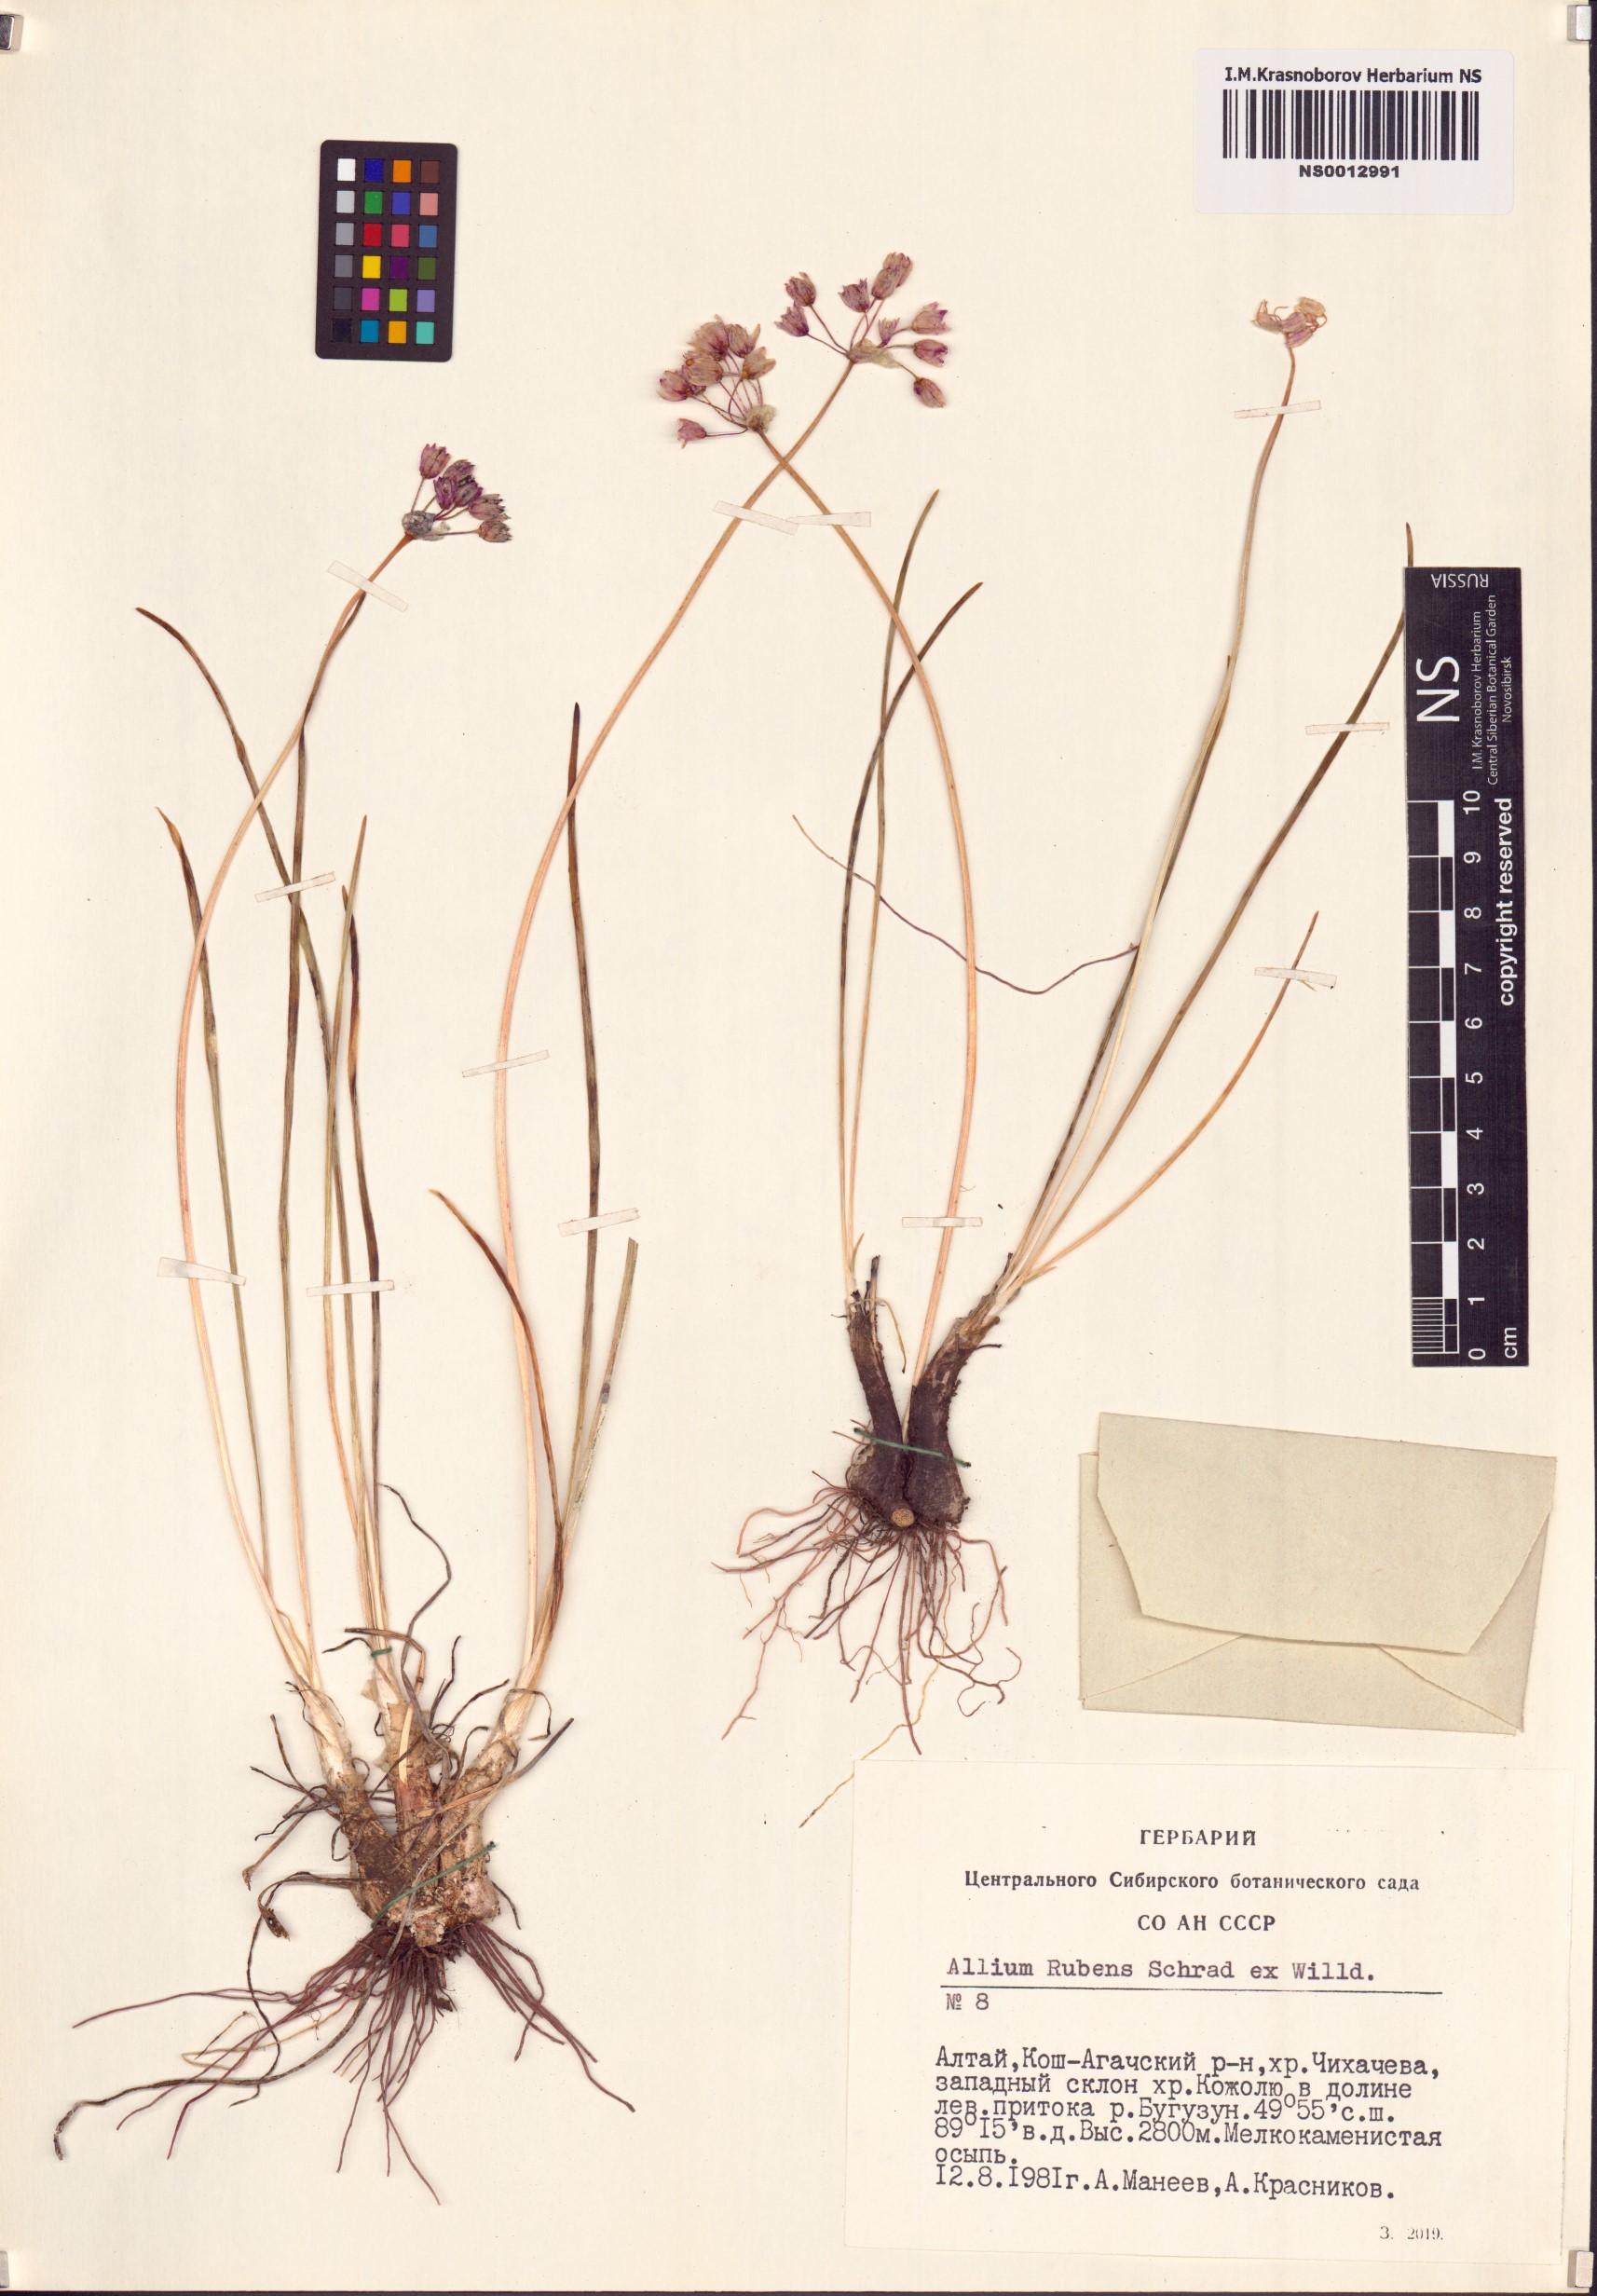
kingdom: Plantae
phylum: Tracheophyta
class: Liliopsida
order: Asparagales
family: Amaryllidaceae
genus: Allium
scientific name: Allium rubens
